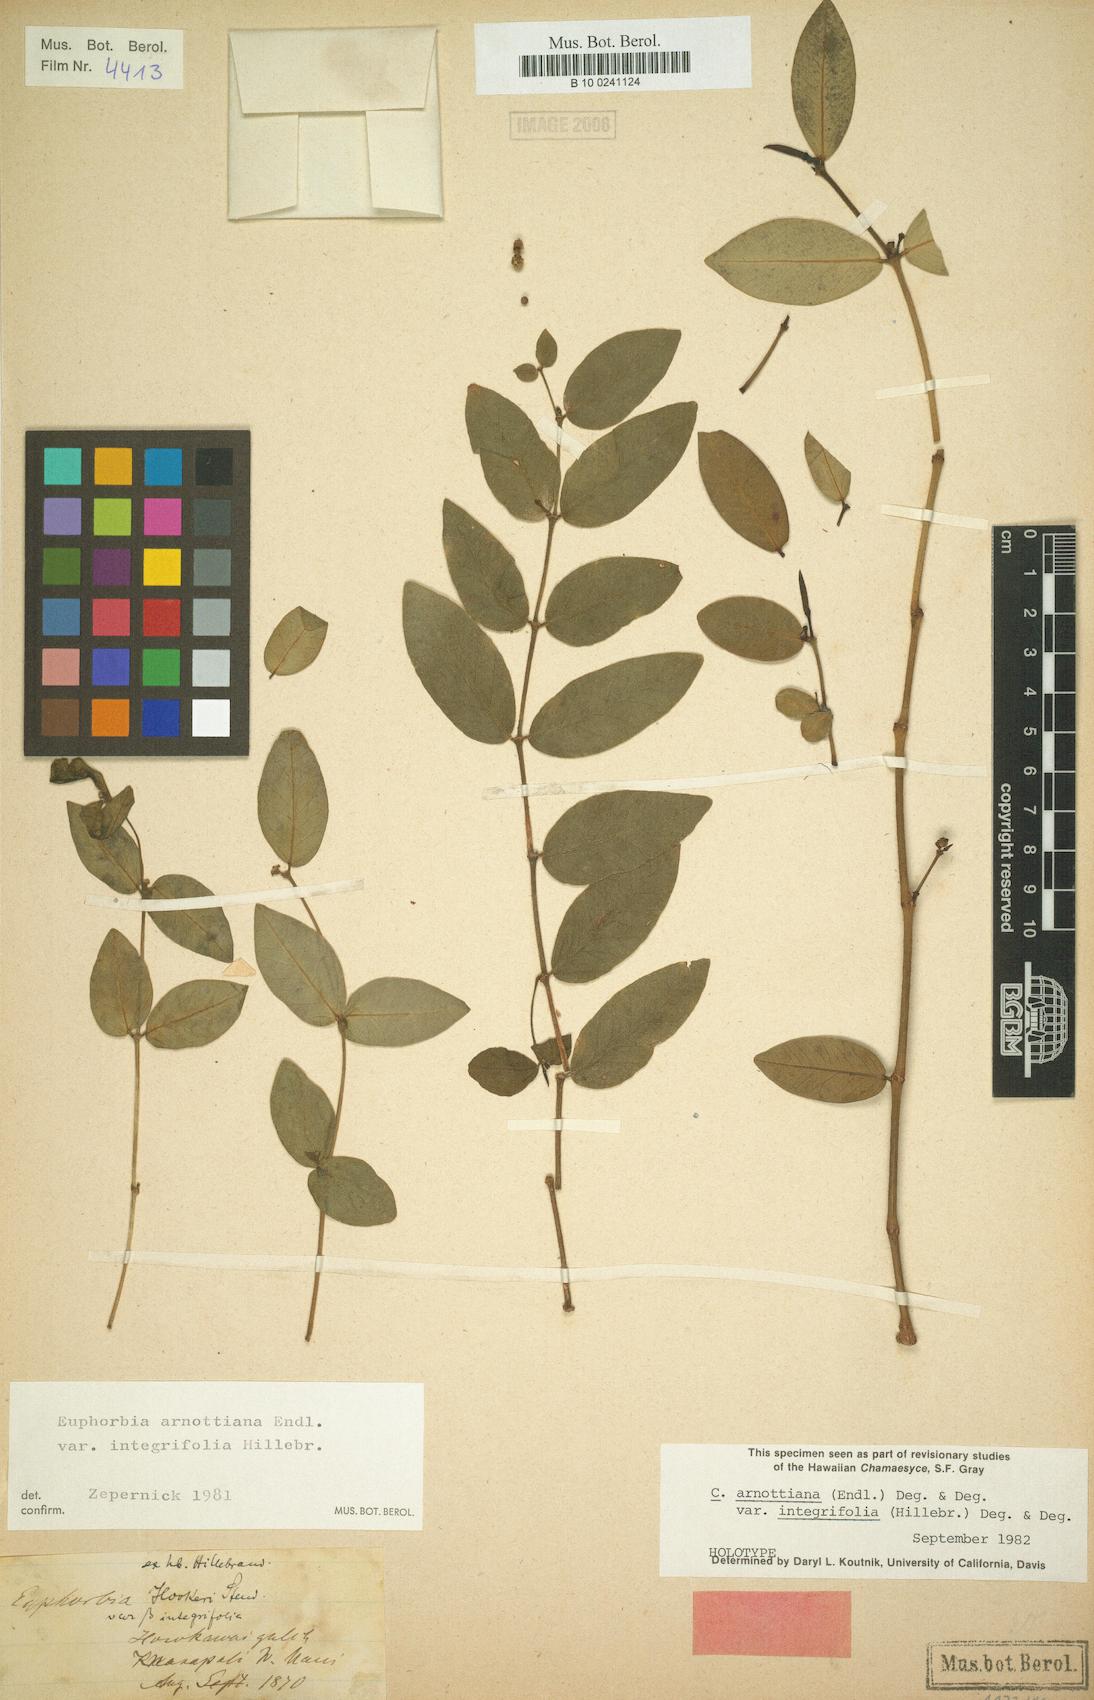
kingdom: Plantae
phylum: Tracheophyta
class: Magnoliopsida
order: Malpighiales
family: Euphorbiaceae
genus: Euphorbia
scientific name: Euphorbia multiformis
